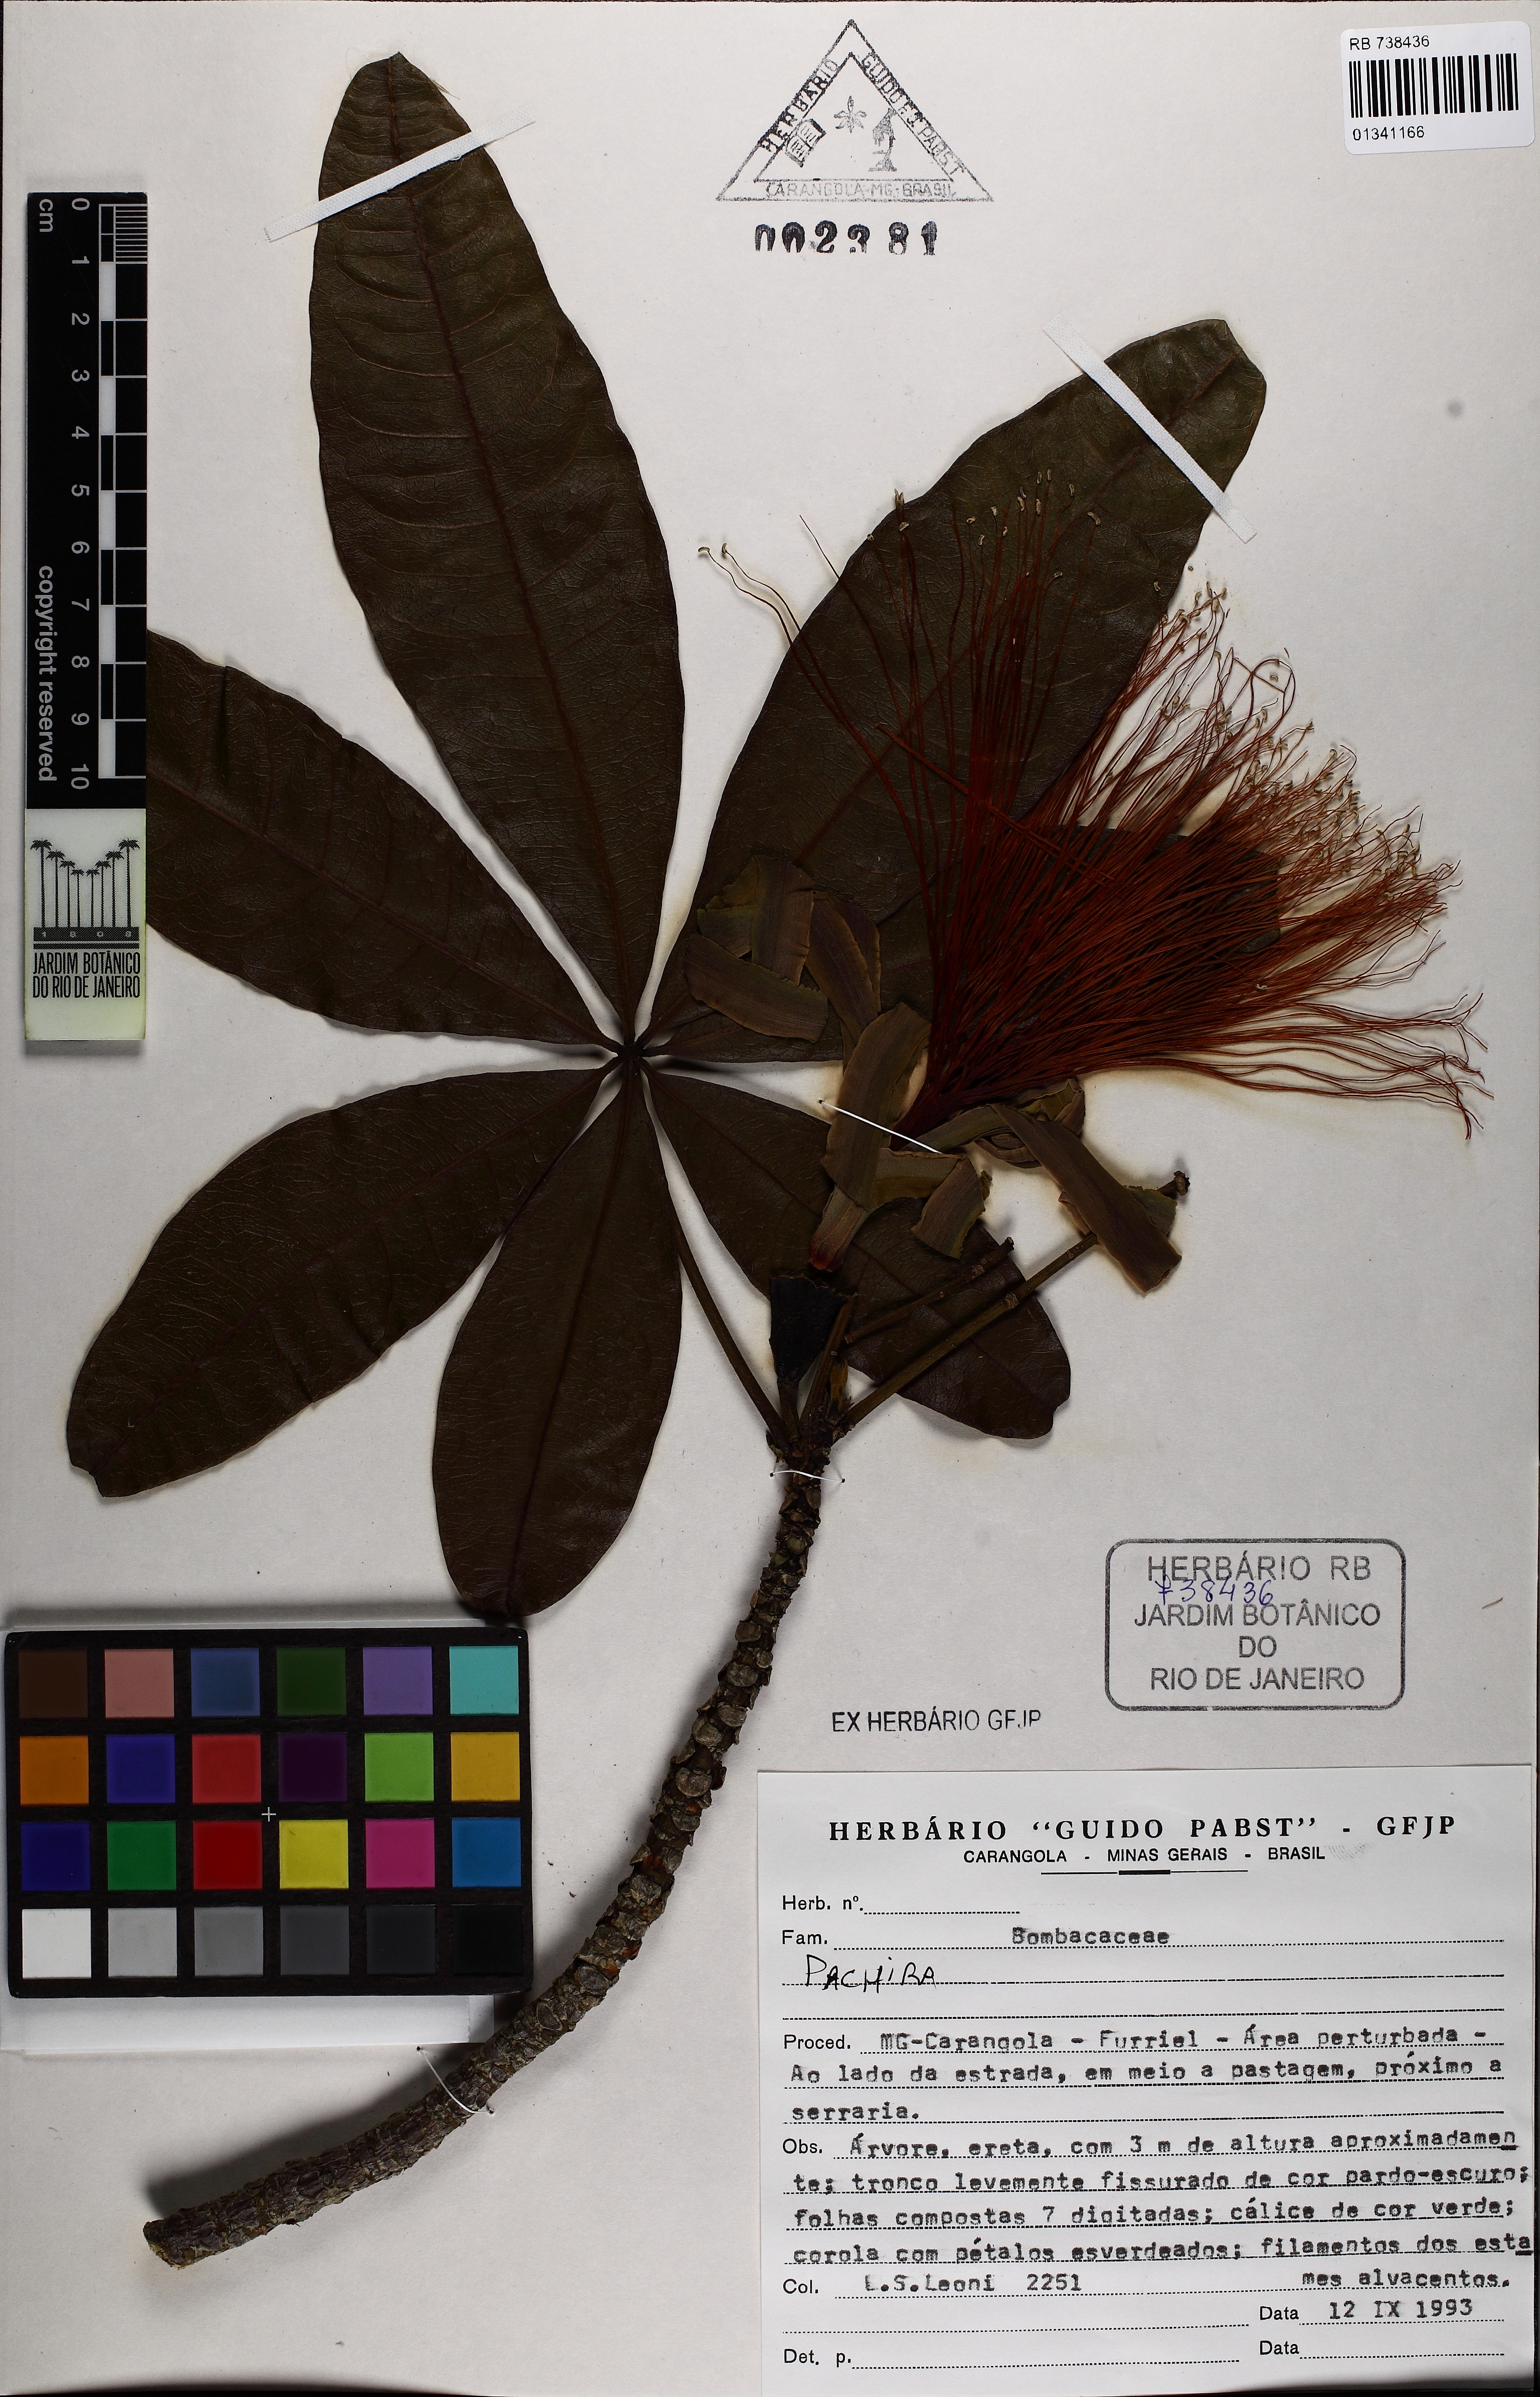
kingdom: Plantae
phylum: Tracheophyta
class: Magnoliopsida
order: Malvales
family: Malvaceae
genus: Pachira
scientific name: Pachira glabra
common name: Moneytree
